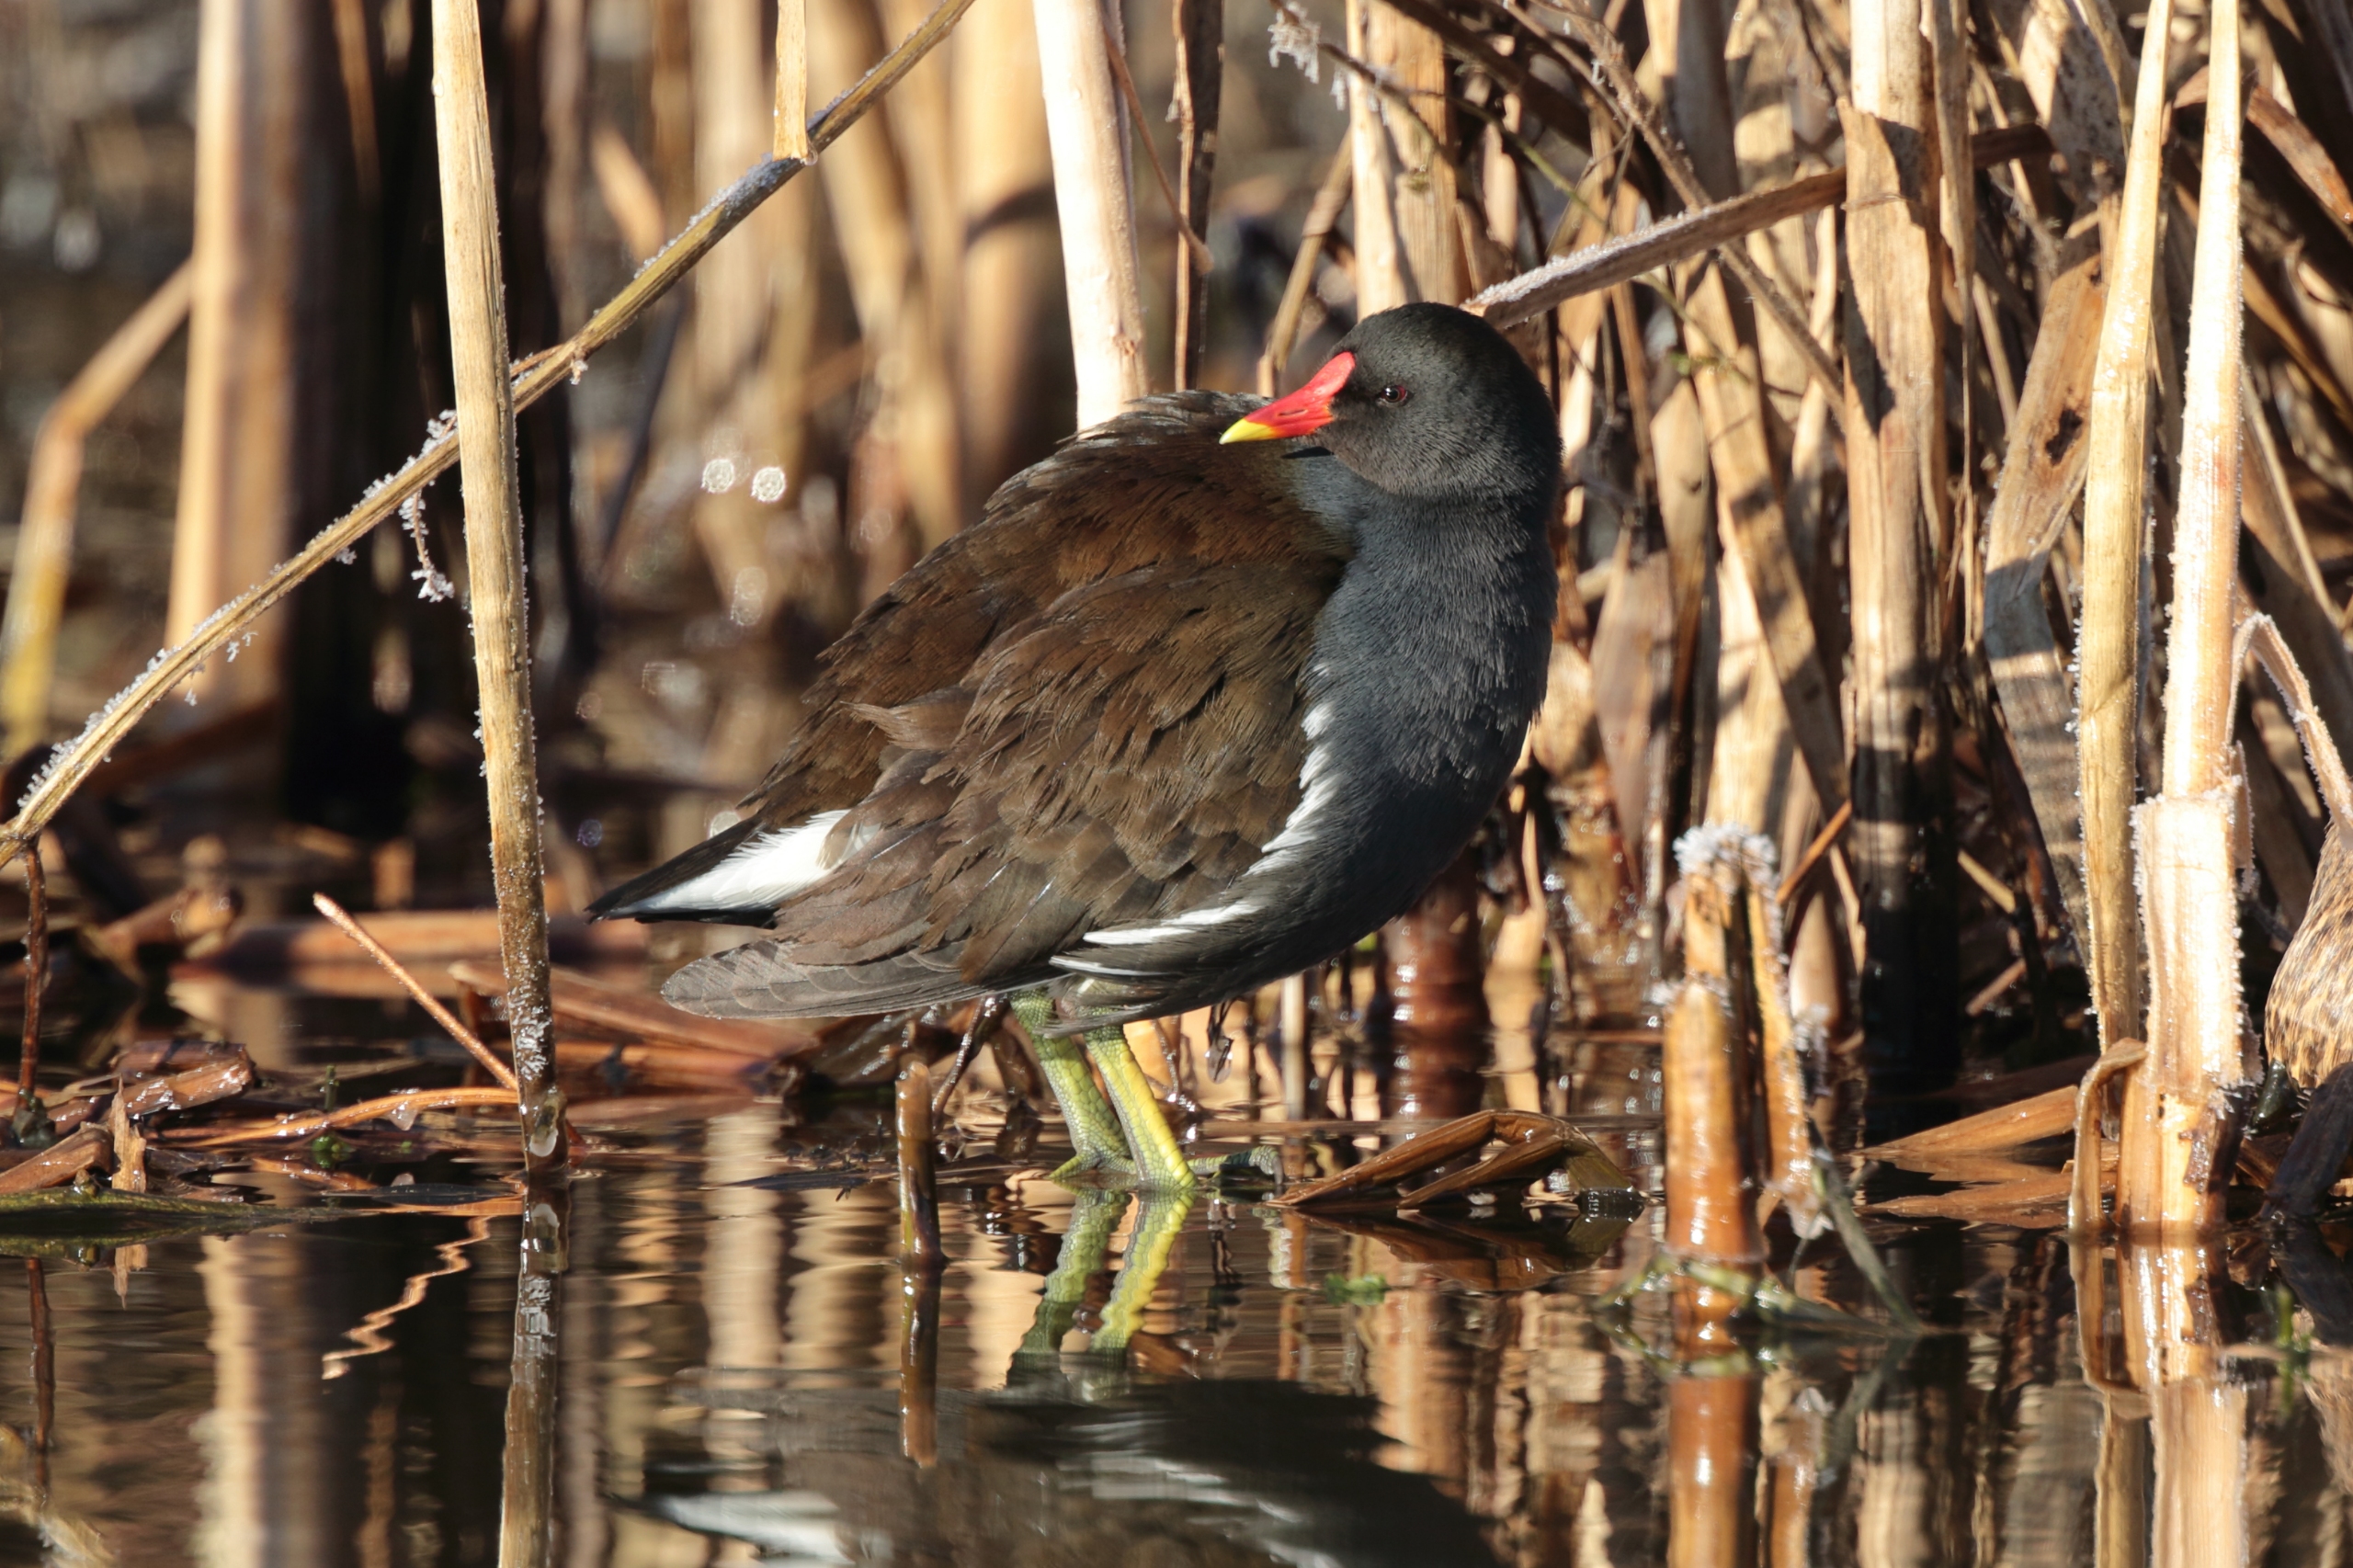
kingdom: Animalia
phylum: Chordata
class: Aves
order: Gruiformes
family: Rallidae
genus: Gallinula
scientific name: Gallinula chloropus
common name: Grønbenet rørhøne
